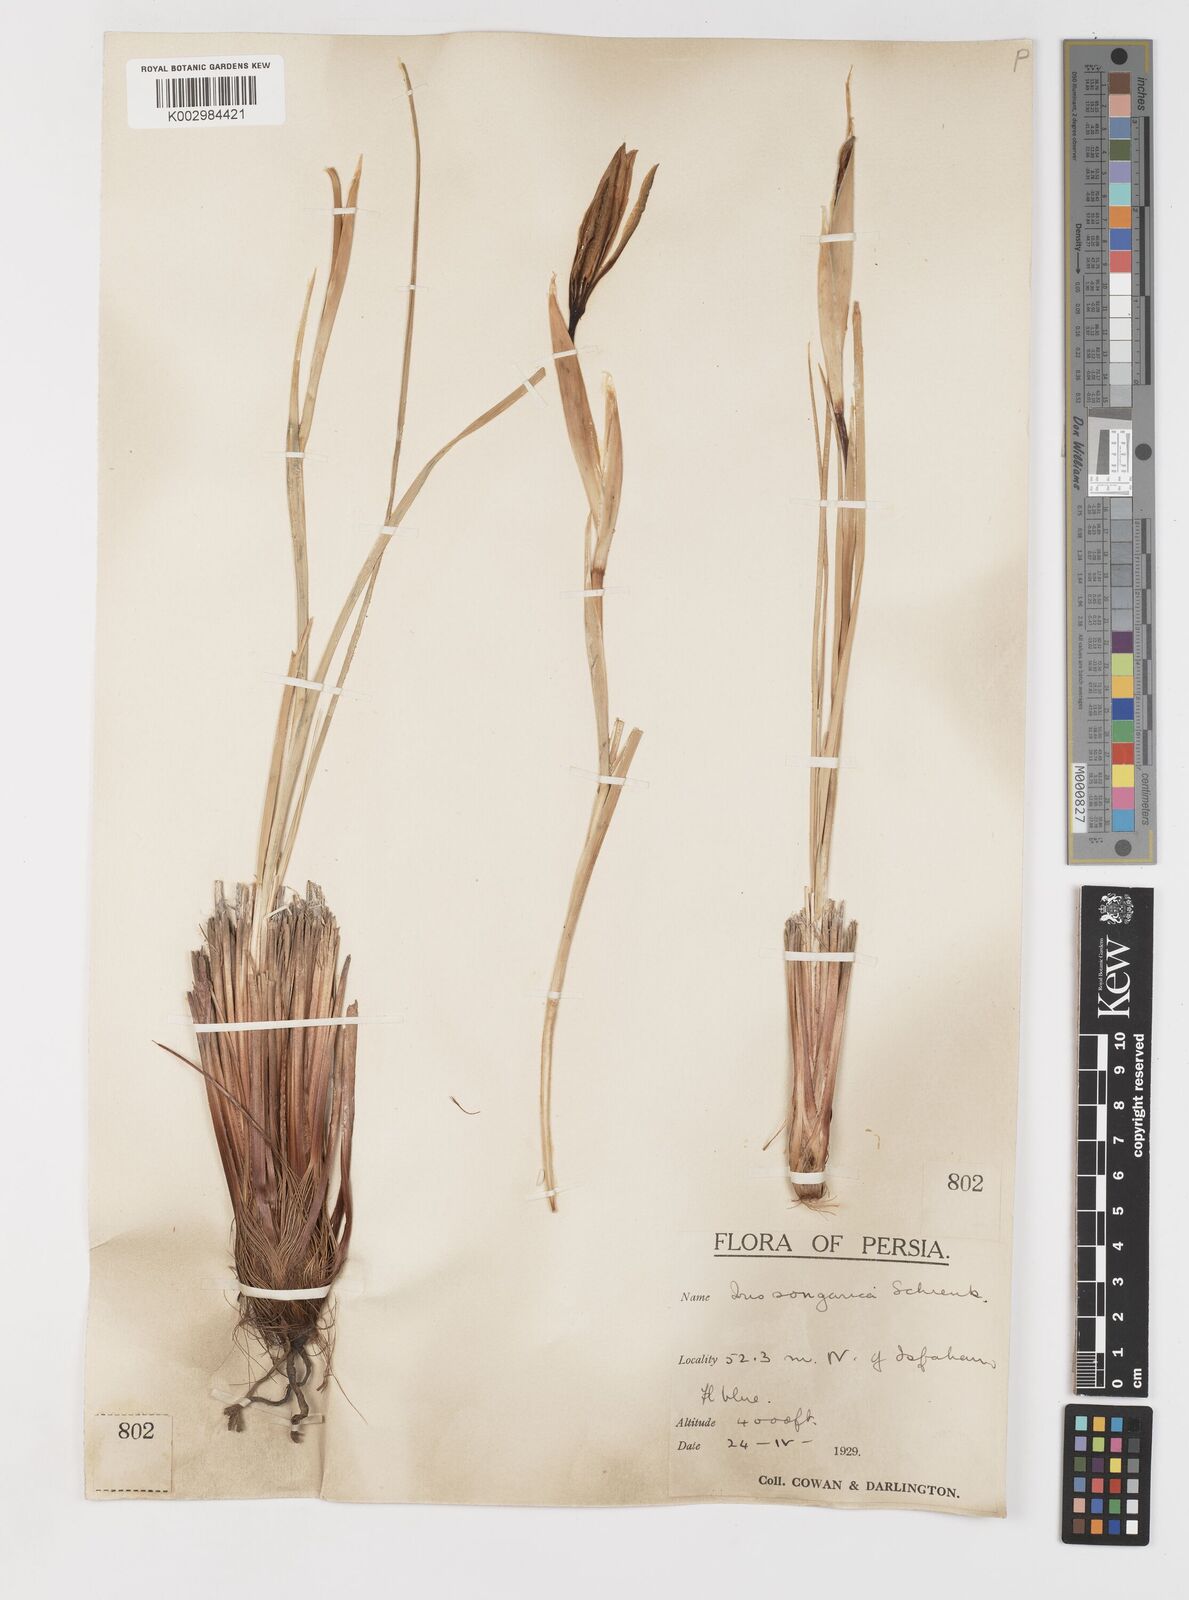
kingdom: Plantae
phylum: Tracheophyta
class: Liliopsida
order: Asparagales
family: Iridaceae
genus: Iris
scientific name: Iris songarica
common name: Songar iris
